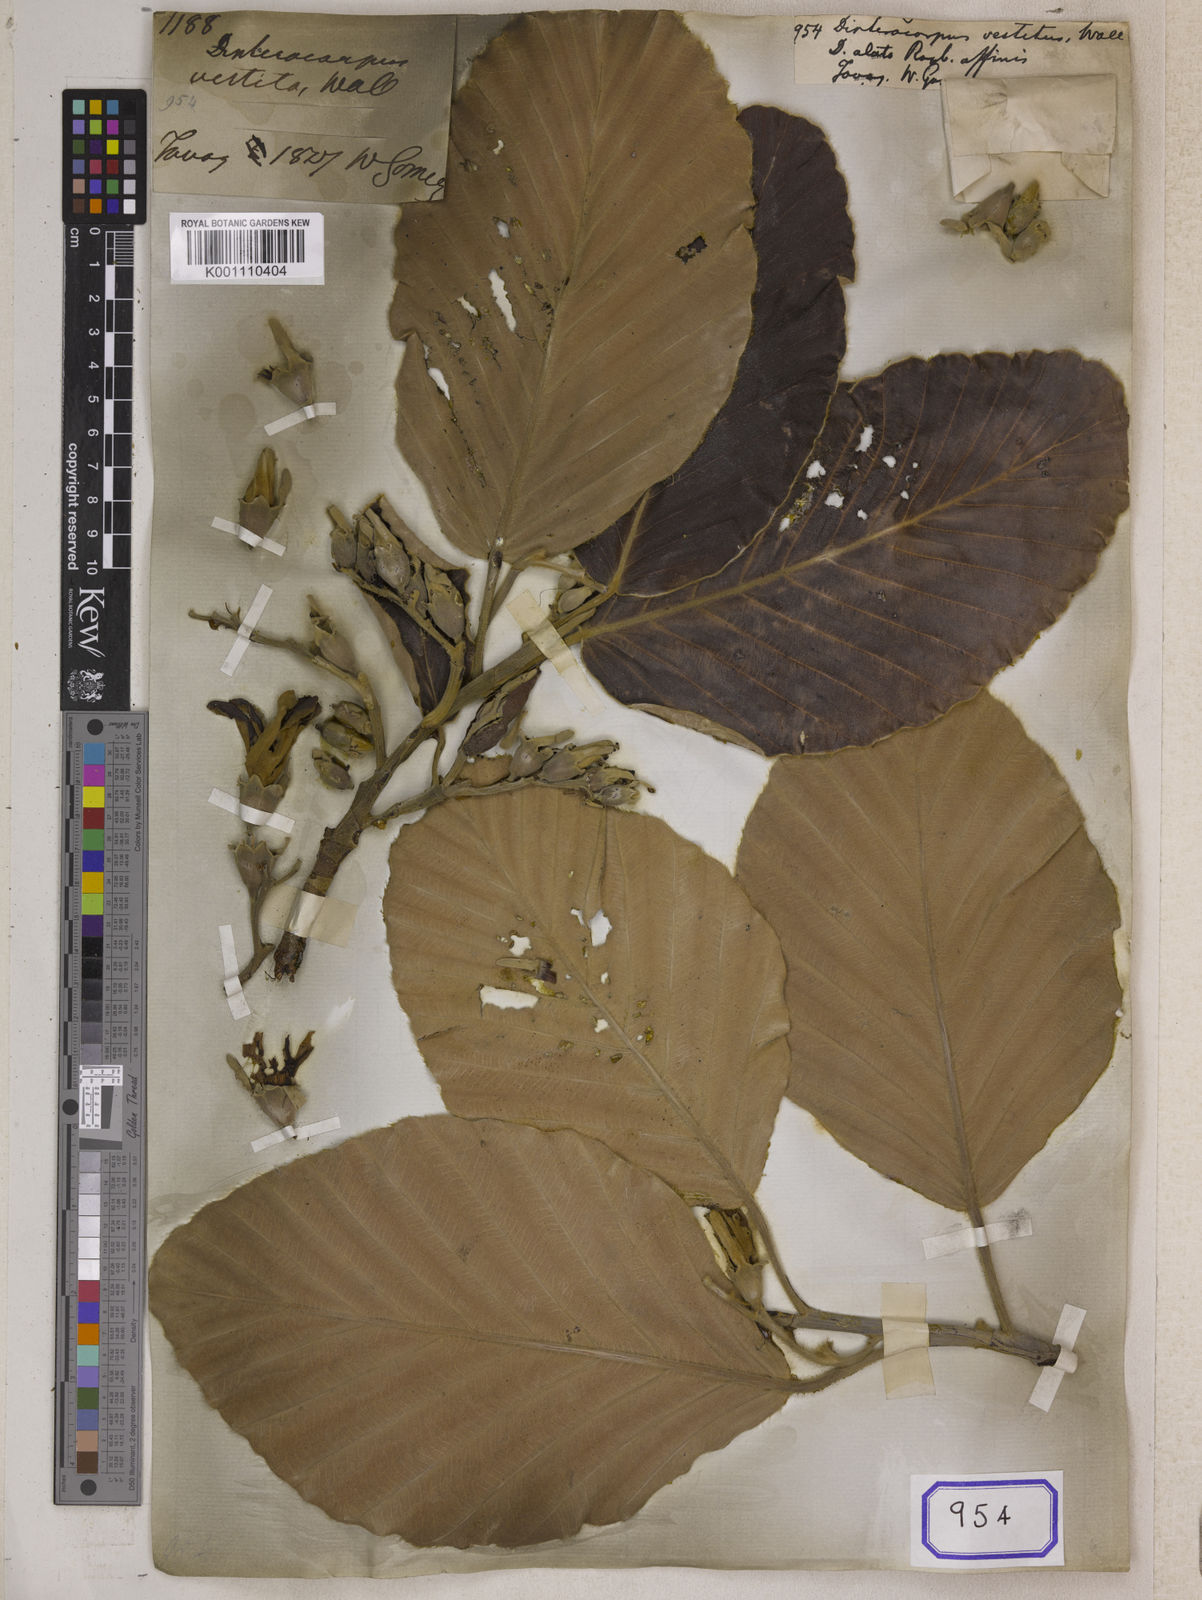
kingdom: Plantae
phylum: Tracheophyta
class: Magnoliopsida
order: Malvales
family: Dipterocarpaceae
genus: Dipterocarpus
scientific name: Dipterocarpus
